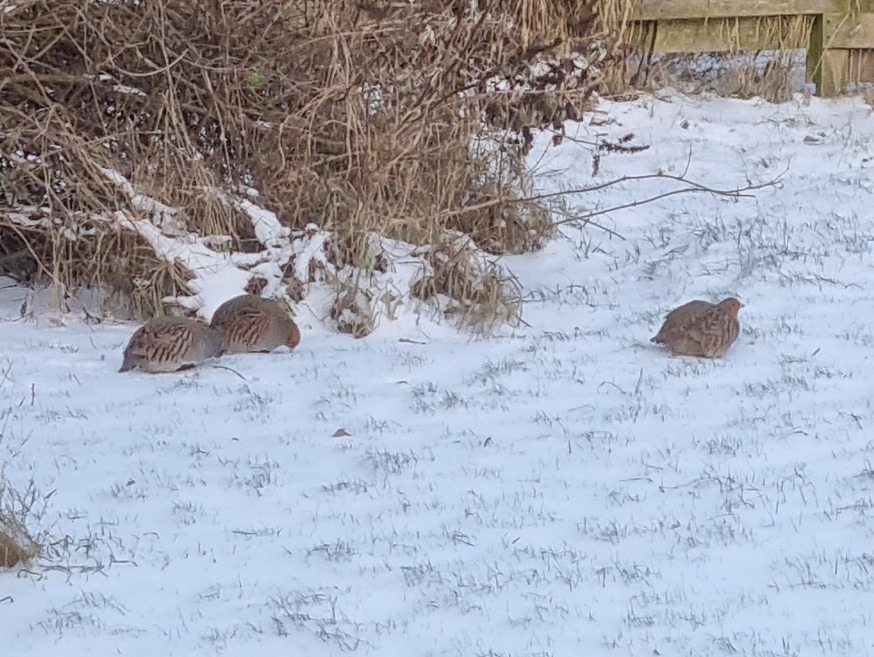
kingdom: Animalia
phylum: Chordata
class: Aves
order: Galliformes
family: Phasianidae
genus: Perdix
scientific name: Perdix perdix
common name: Agerhøne
